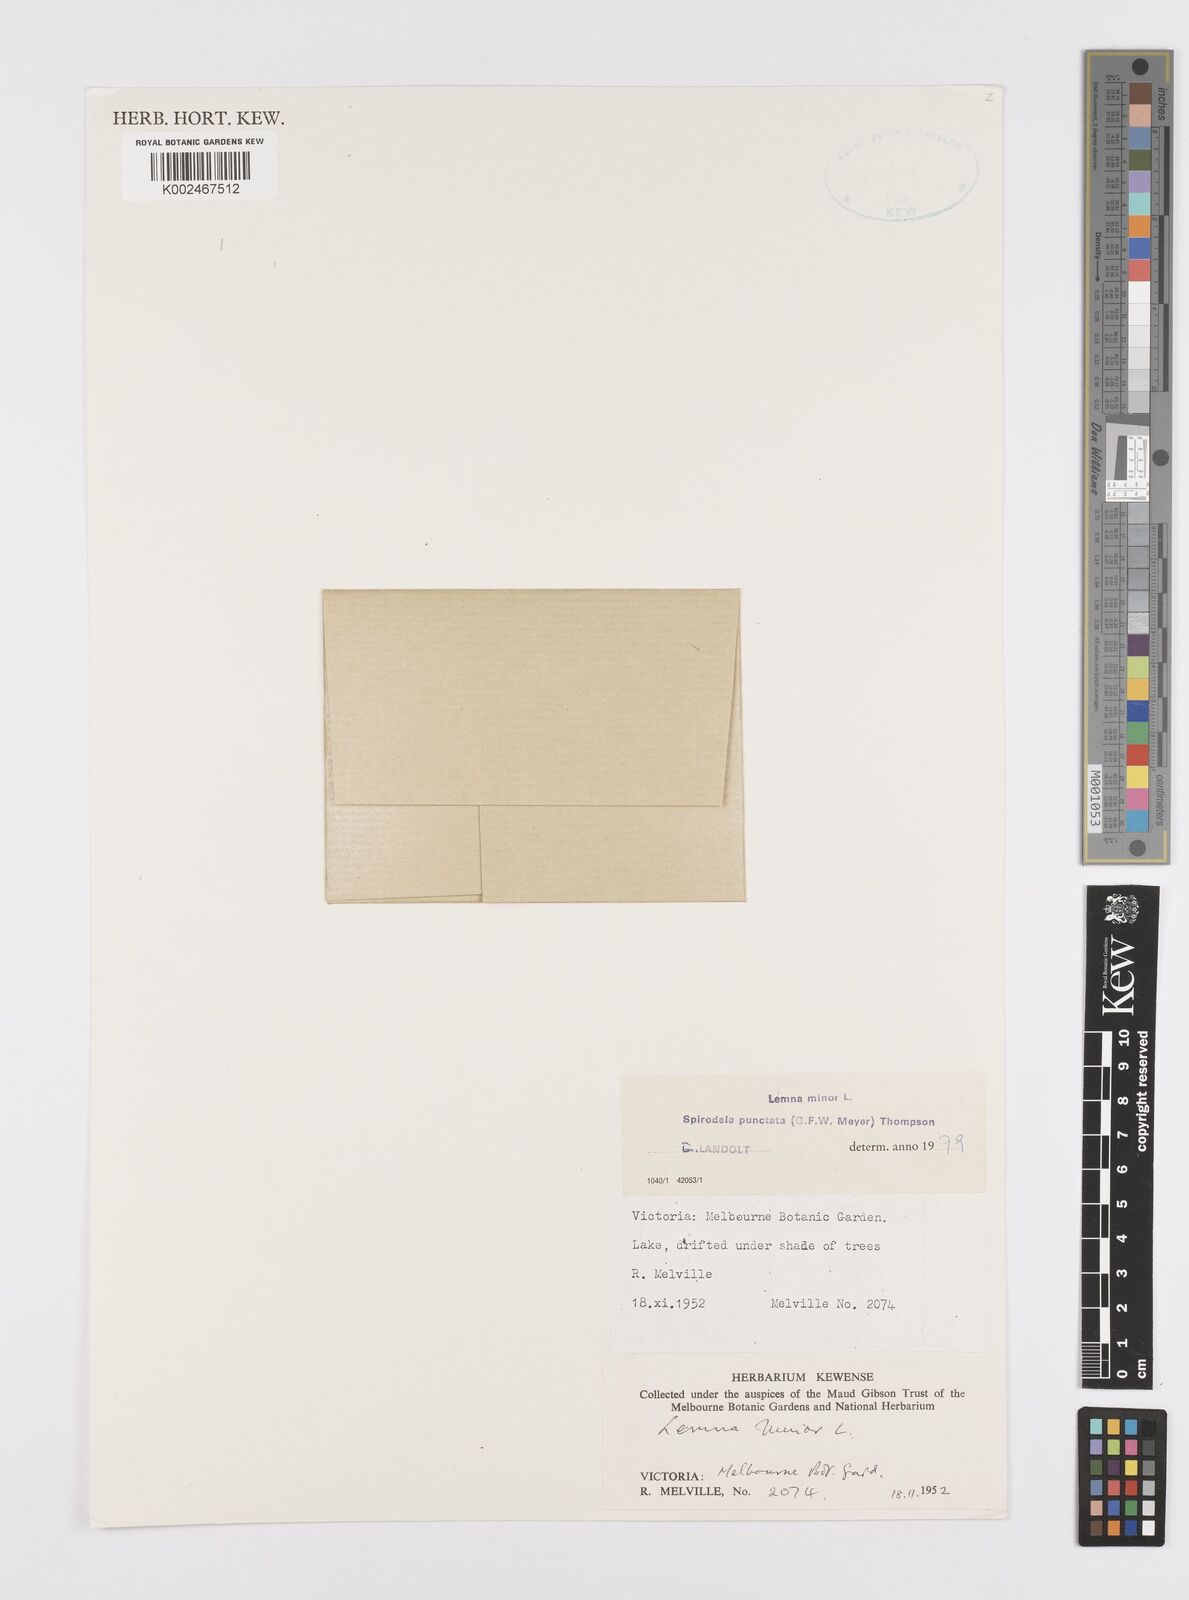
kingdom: Plantae
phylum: Tracheophyta
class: Liliopsida
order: Alismatales
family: Araceae
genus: Spirodela
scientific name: Spirodela punctata
